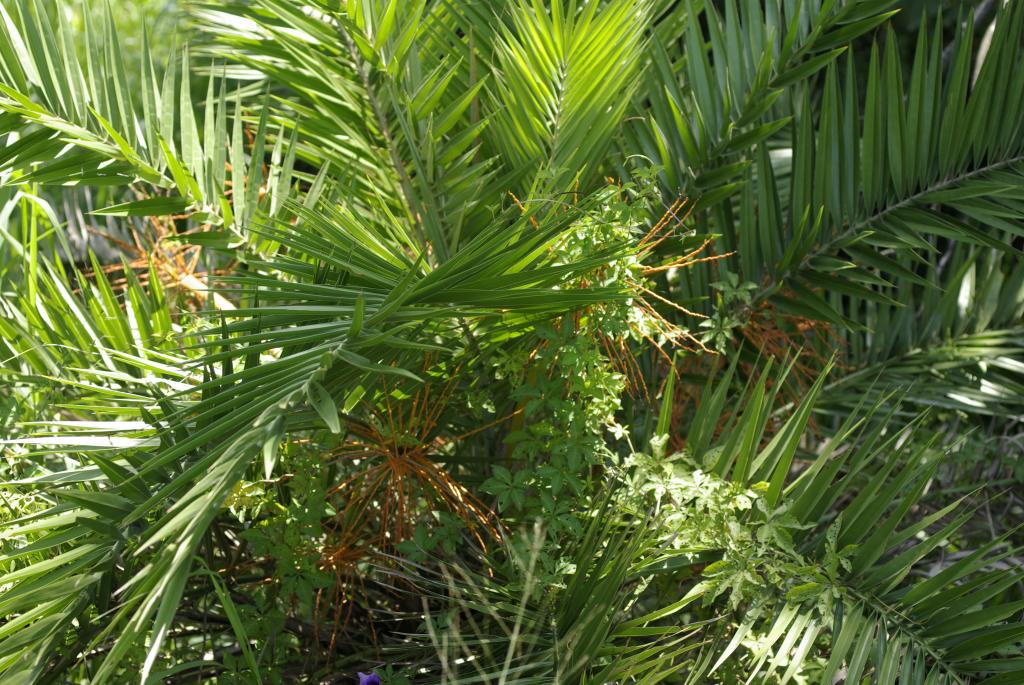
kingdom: Plantae
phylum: Tracheophyta
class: Liliopsida
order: Arecales
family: Arecaceae
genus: Phoenix
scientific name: Phoenix loureiroi
